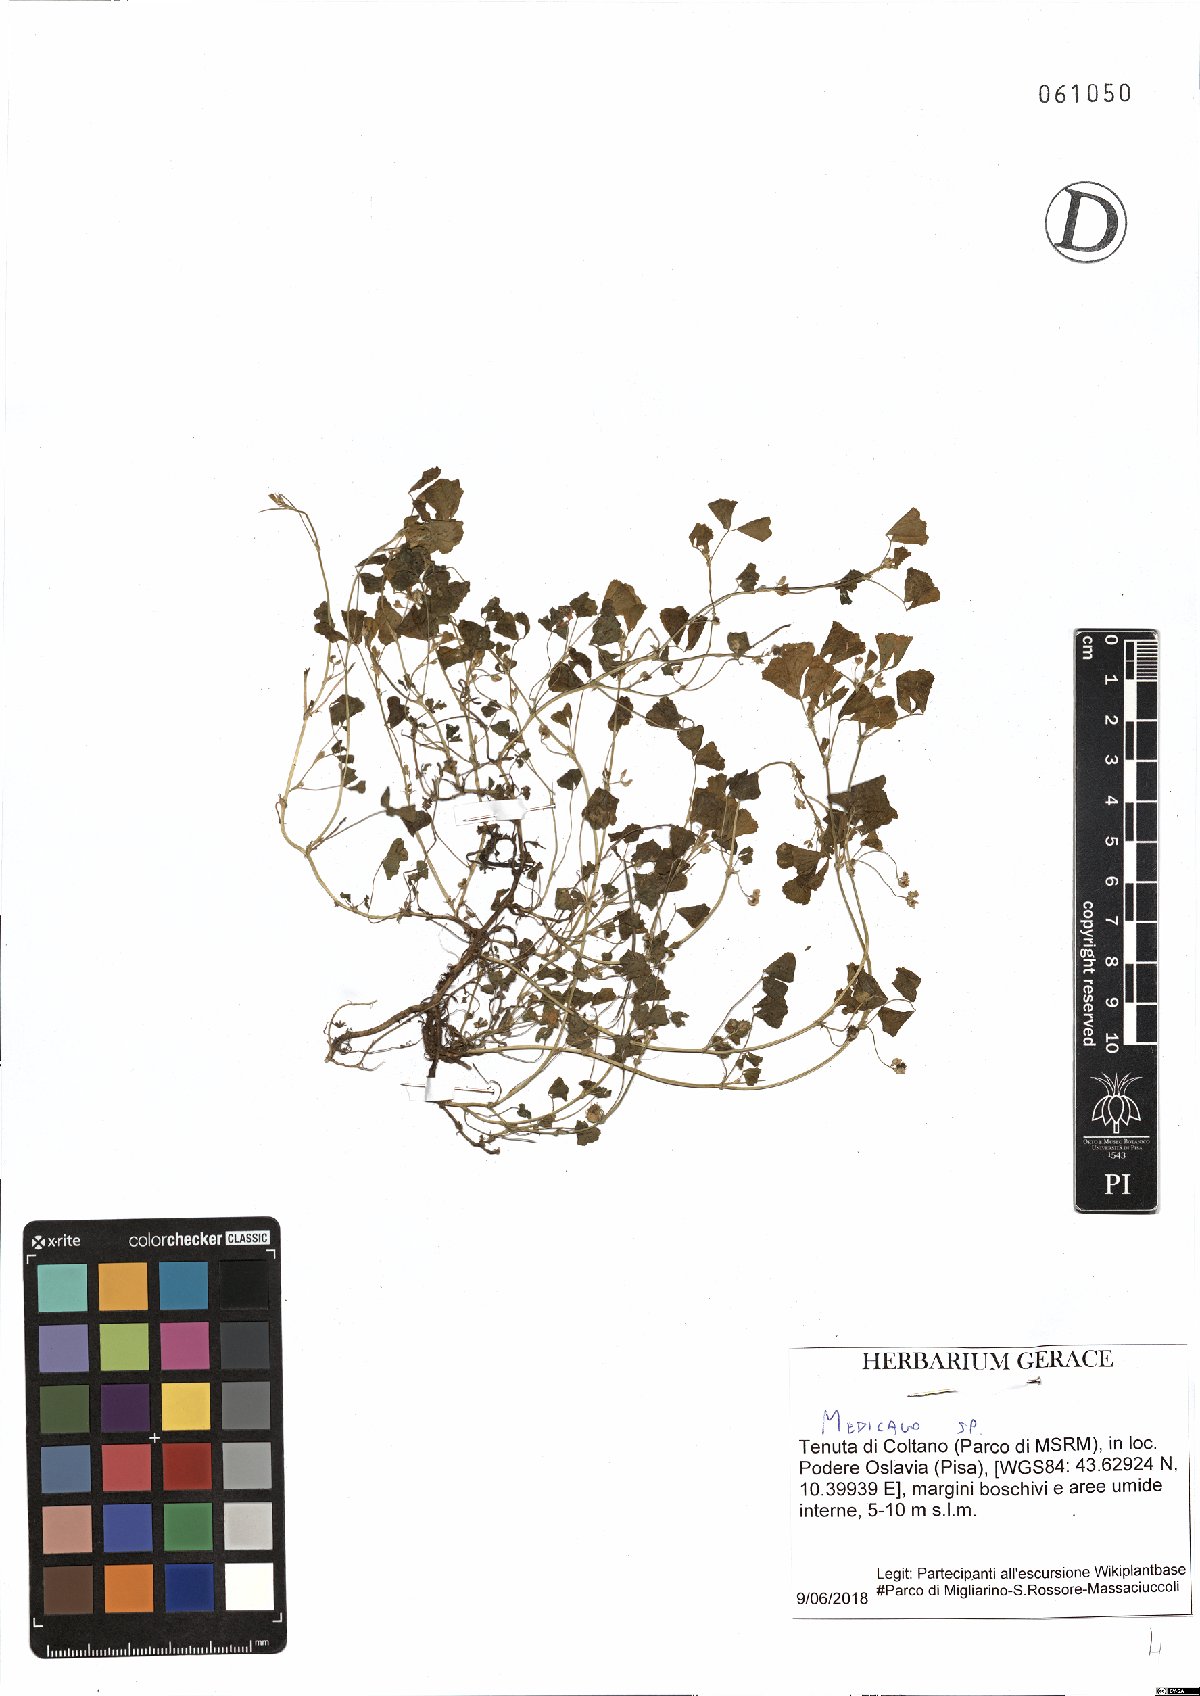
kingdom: Plantae
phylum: Tracheophyta
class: Magnoliopsida
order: Fabales
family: Fabaceae
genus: Medicago
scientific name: Medicago
